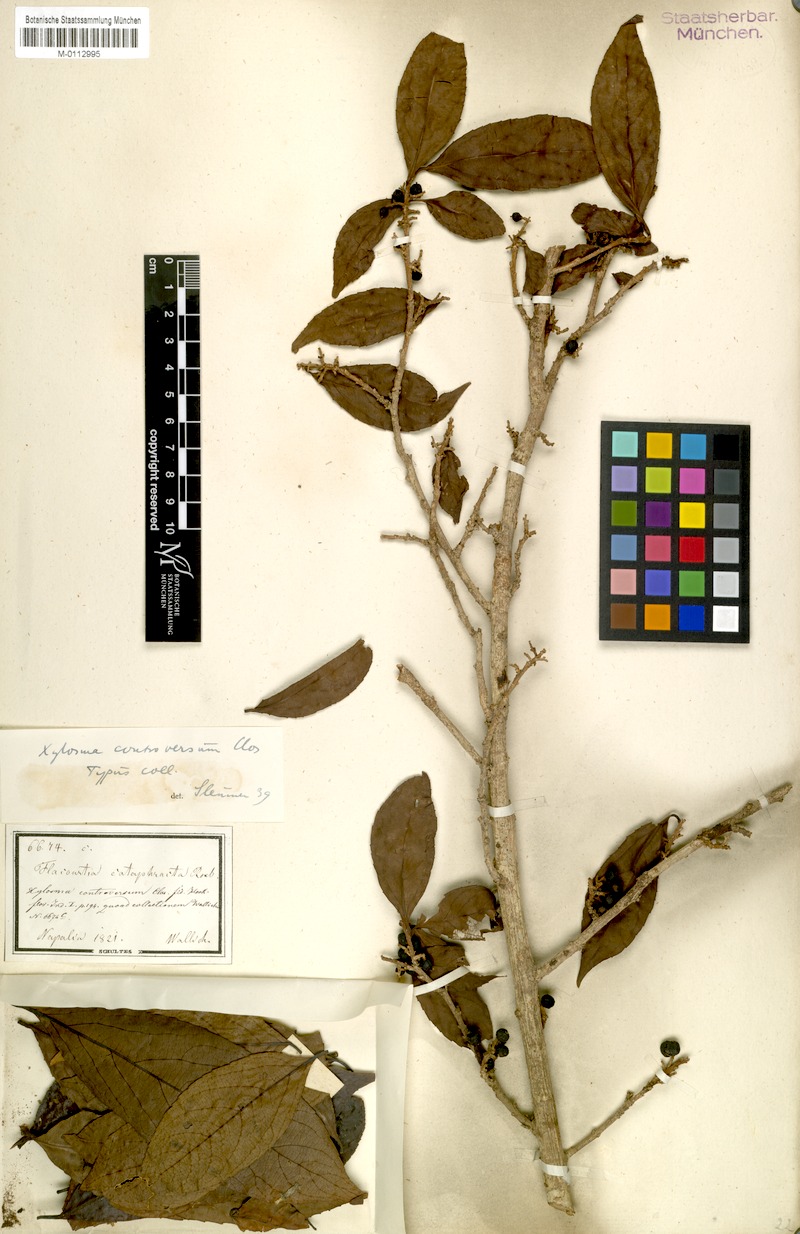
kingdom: Plantae
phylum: Tracheophyta
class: Magnoliopsida
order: Malpighiales
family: Salicaceae
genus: Xylosma
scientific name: Xylosma controversa
